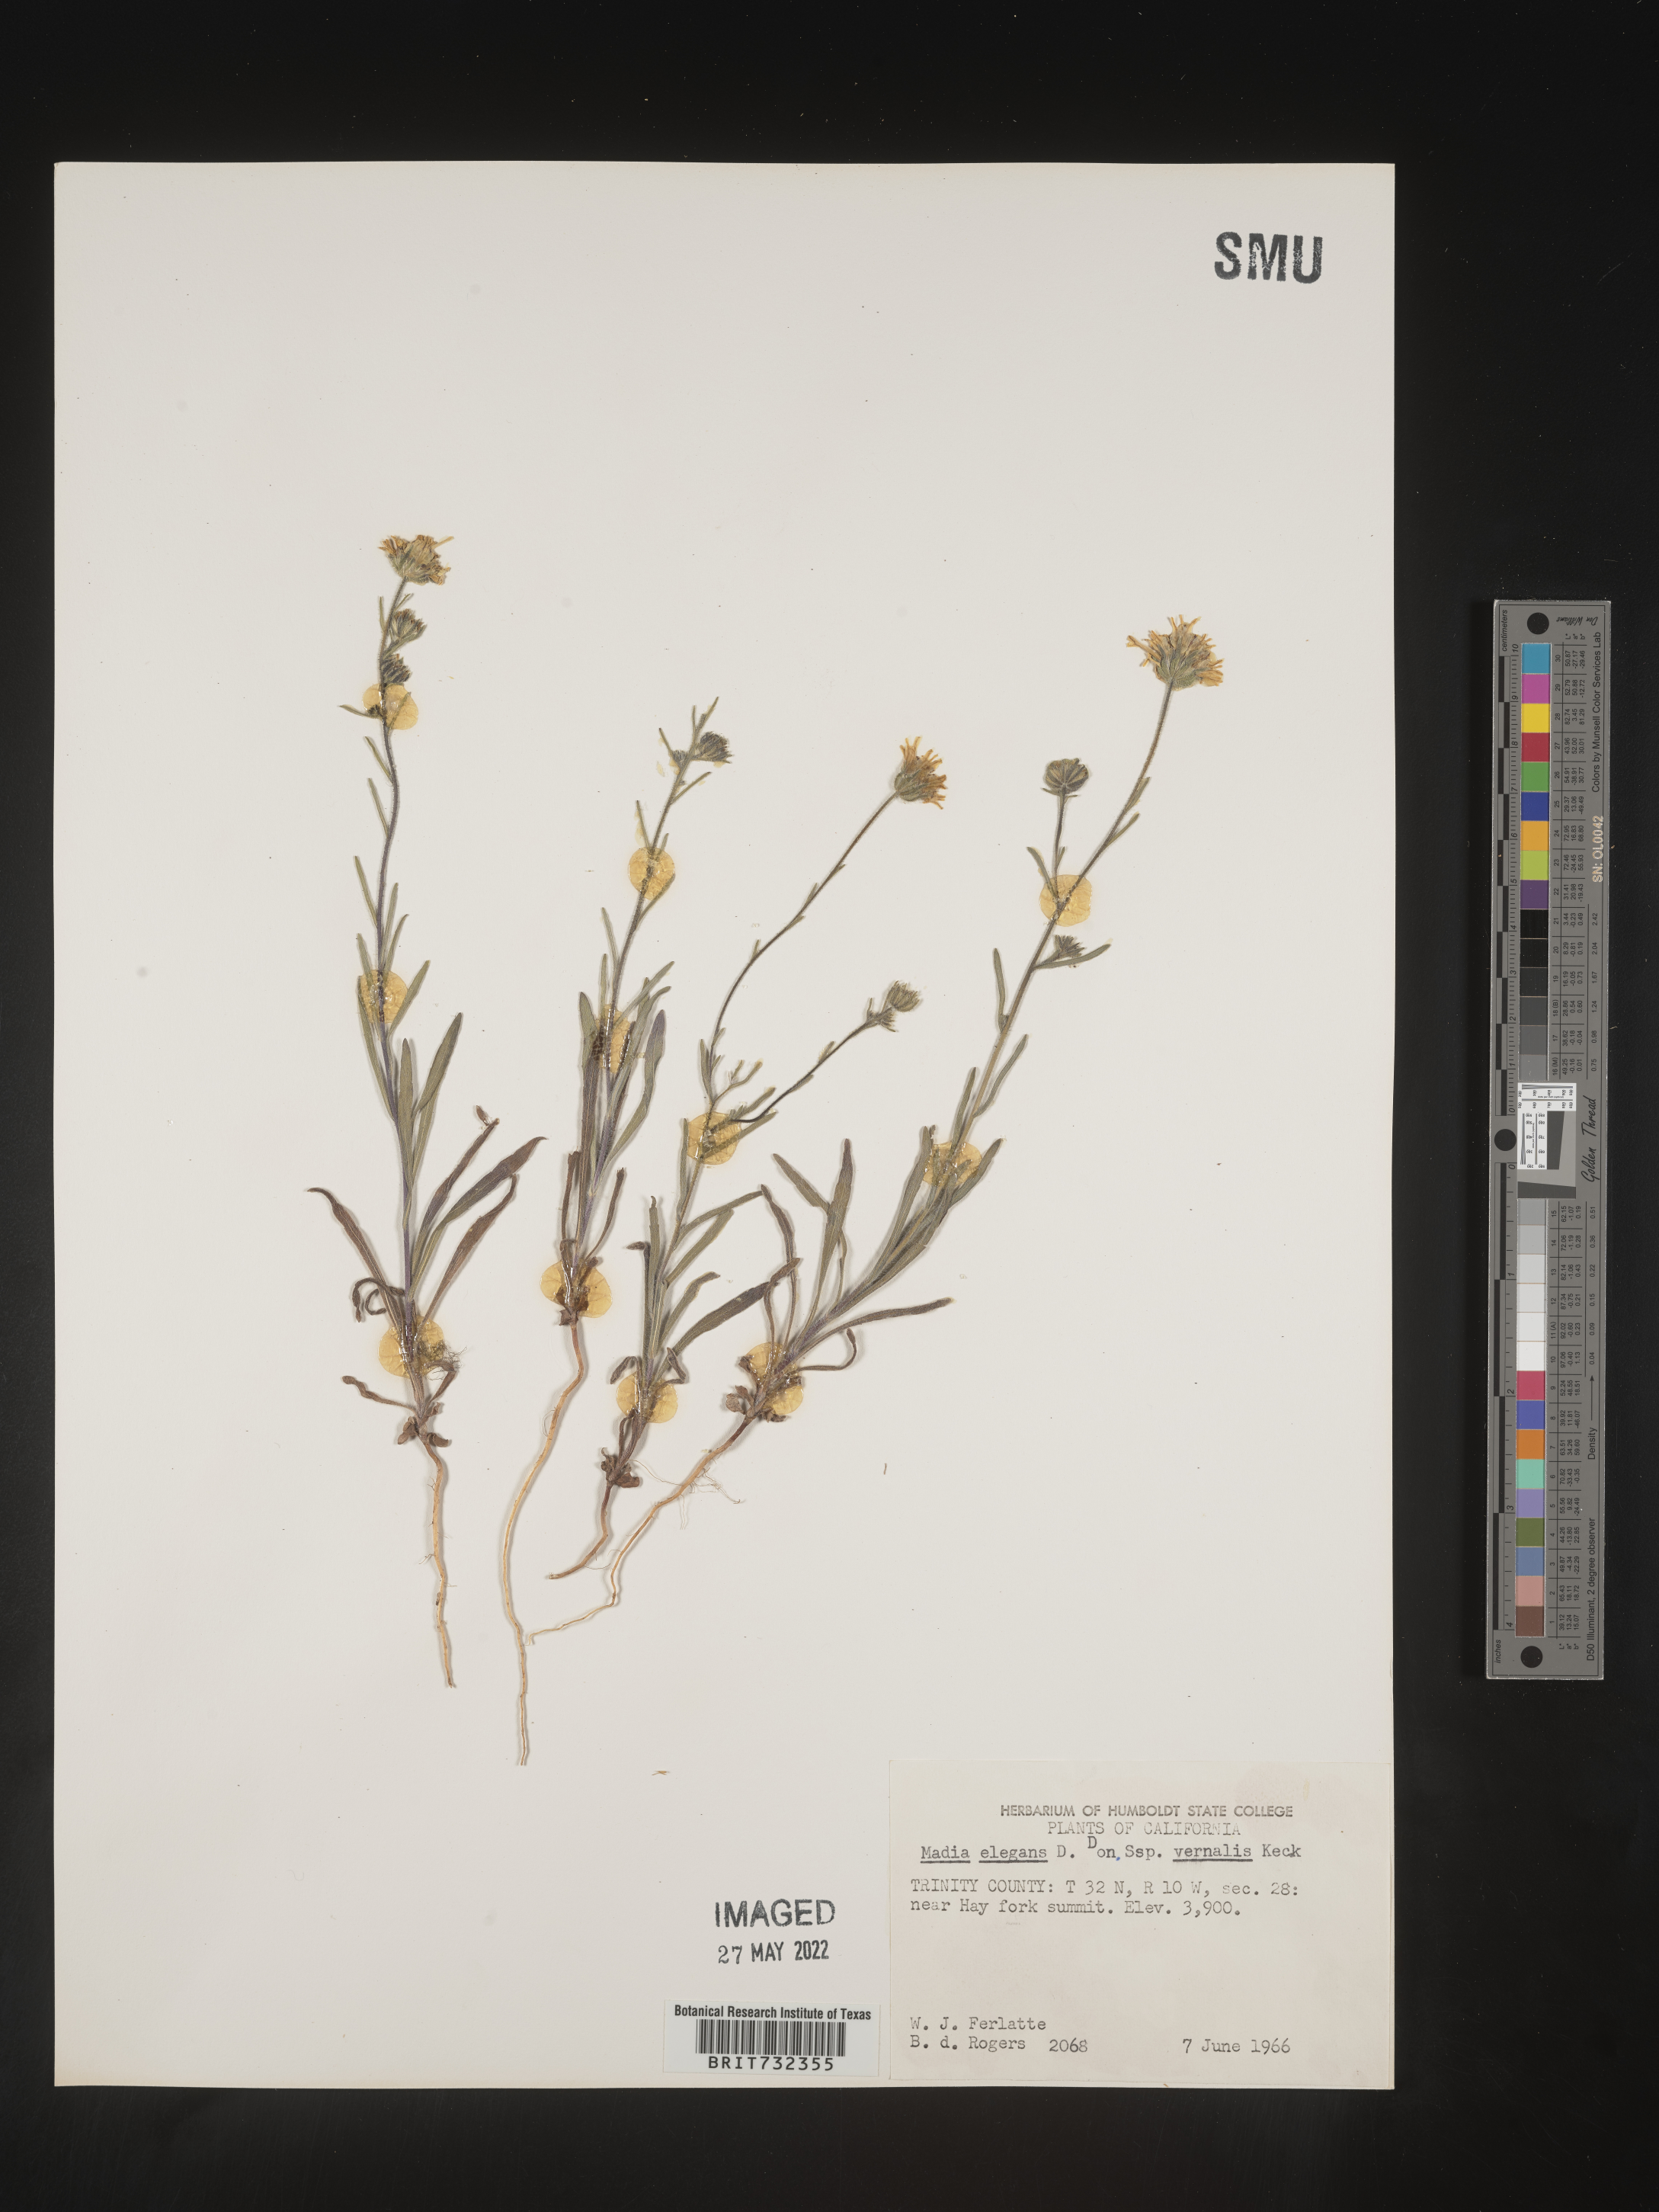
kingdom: Plantae
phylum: Tracheophyta
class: Magnoliopsida
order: Asterales
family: Asteraceae
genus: Madia
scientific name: Madia
